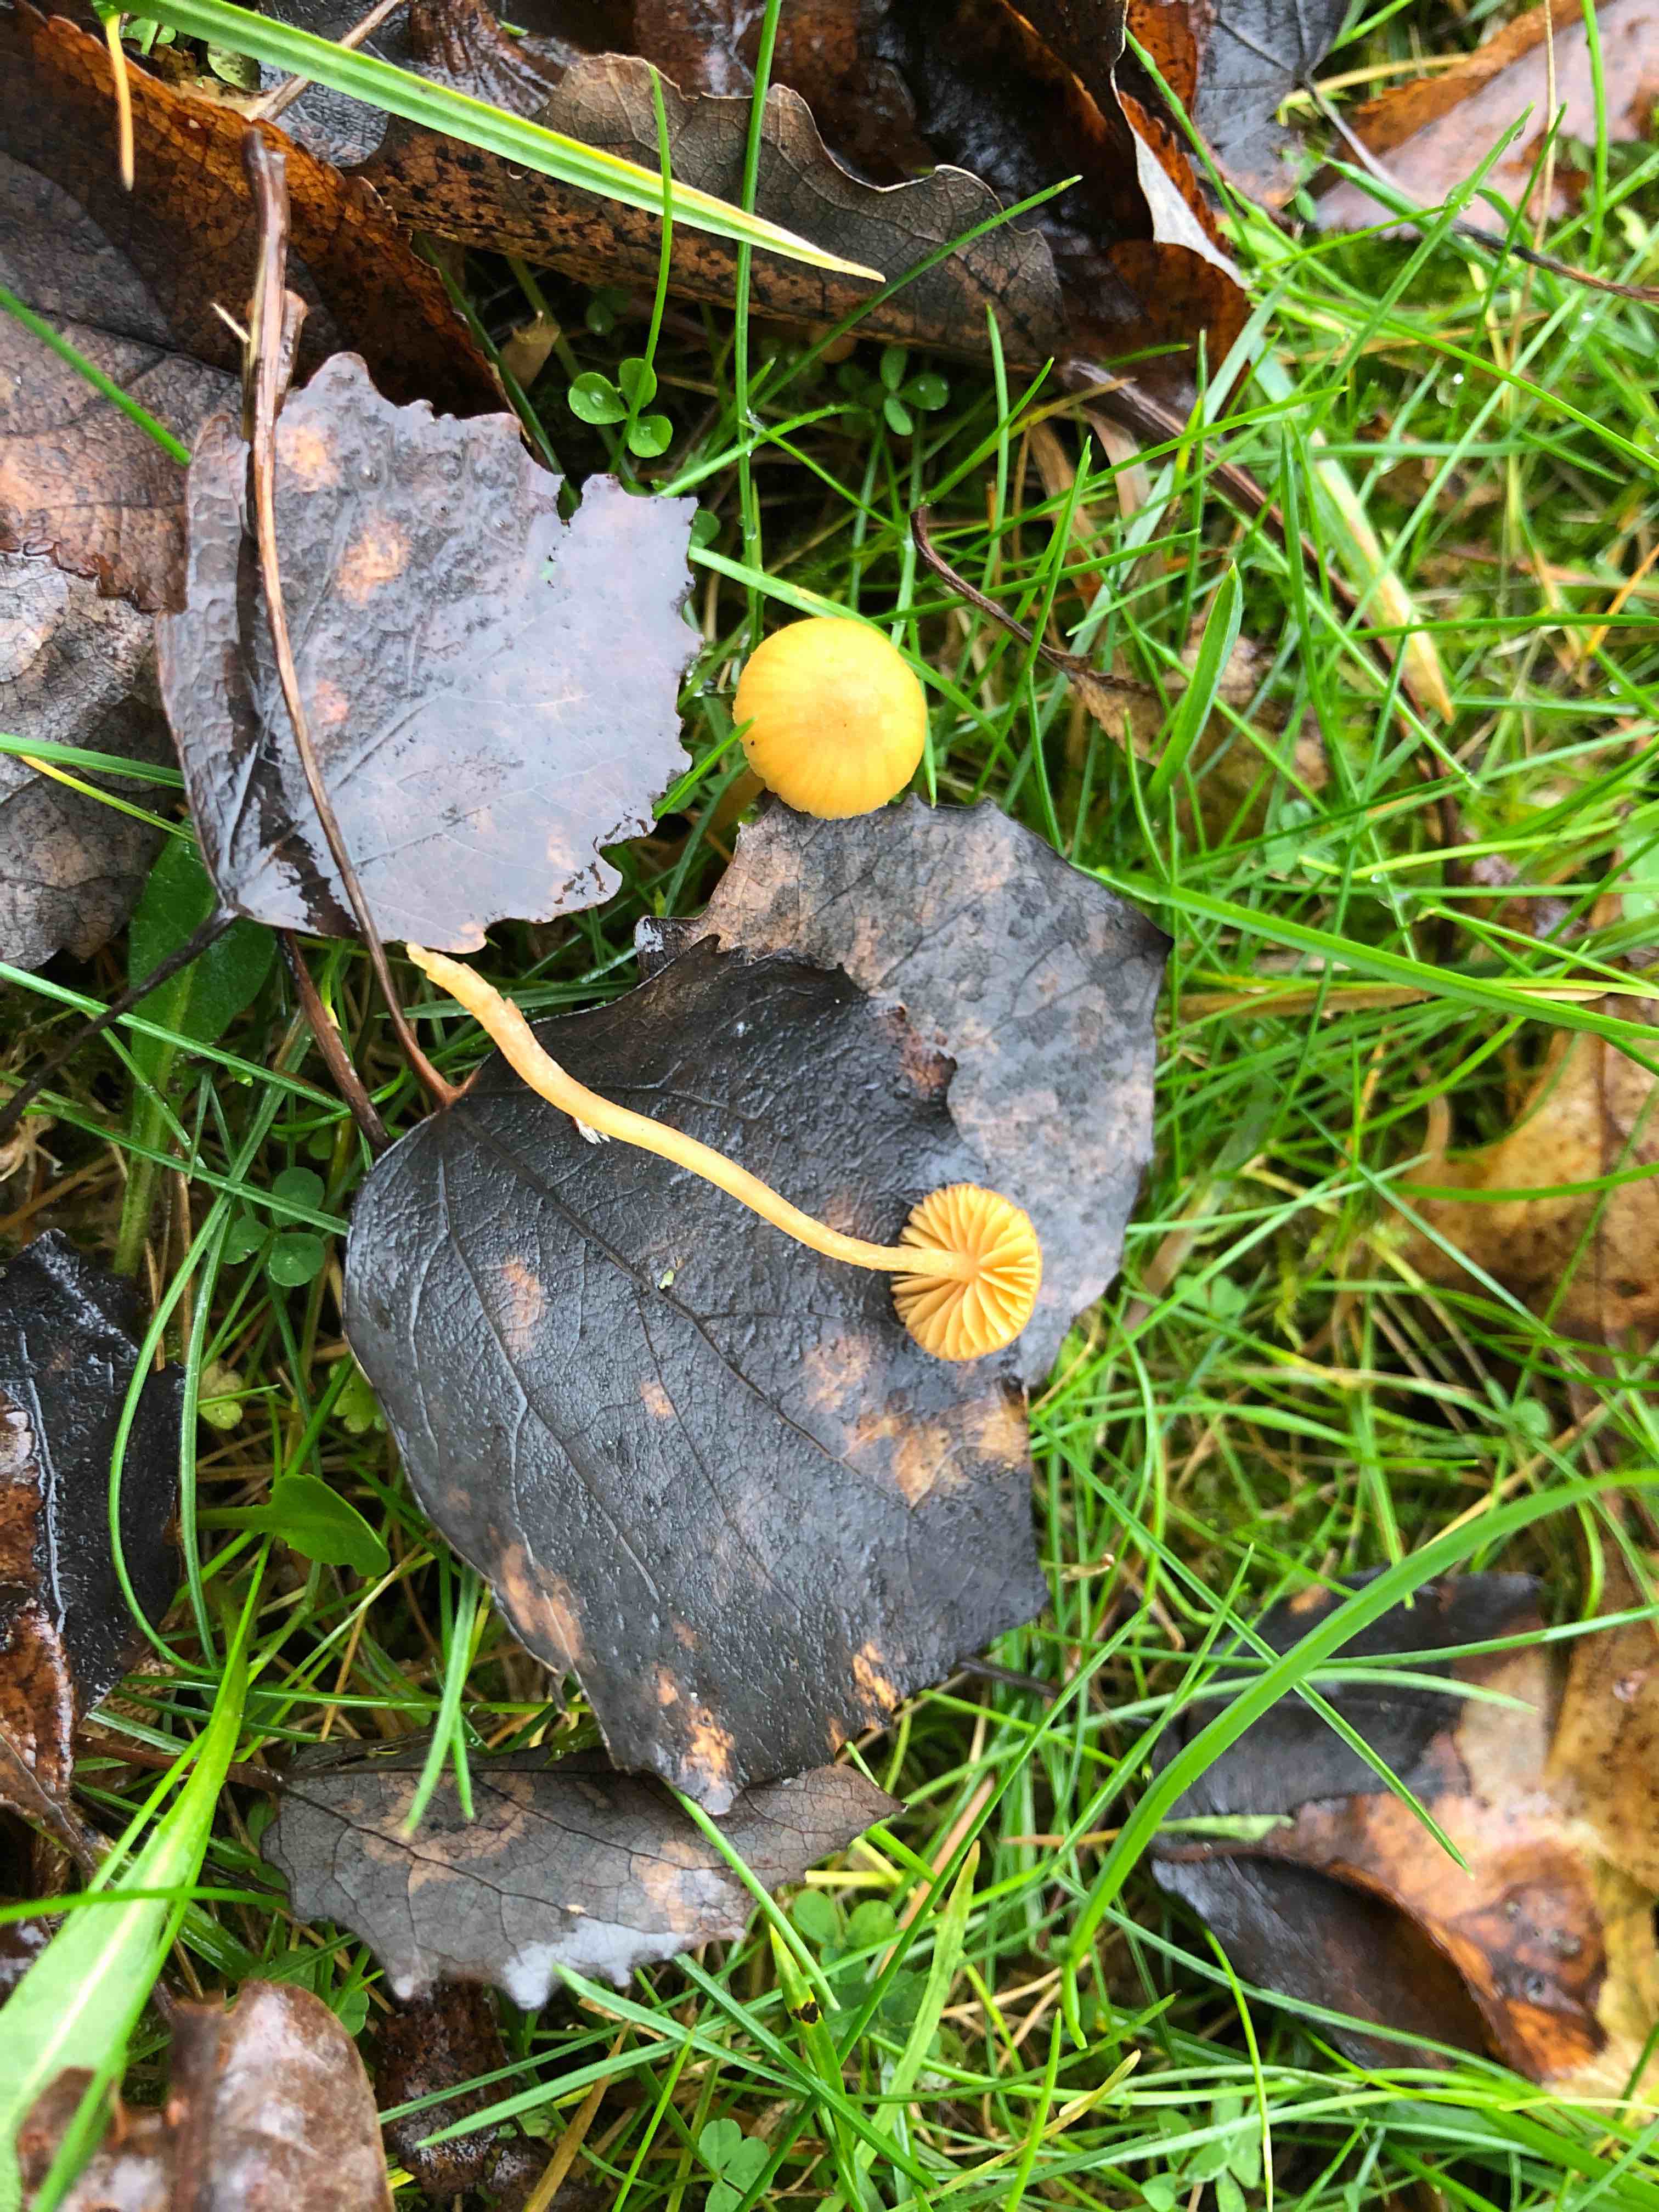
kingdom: Fungi
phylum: Basidiomycota
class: Agaricomycetes
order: Agaricales
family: Hymenogastraceae
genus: Galerina
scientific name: Galerina
